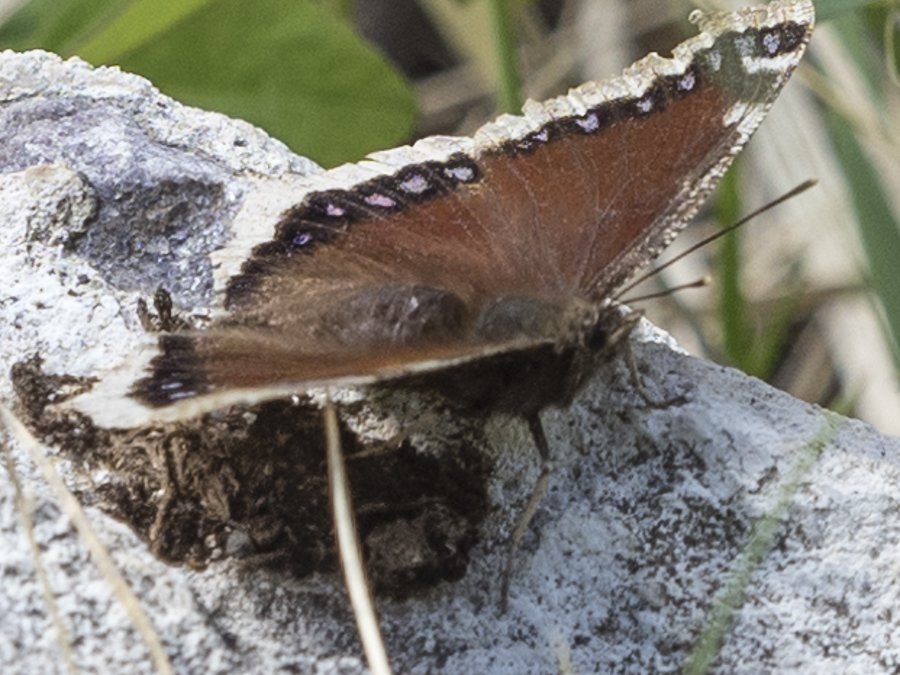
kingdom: Animalia
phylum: Arthropoda
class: Insecta
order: Lepidoptera
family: Nymphalidae
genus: Nymphalis
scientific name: Nymphalis antiopa
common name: Mourning Cloak
